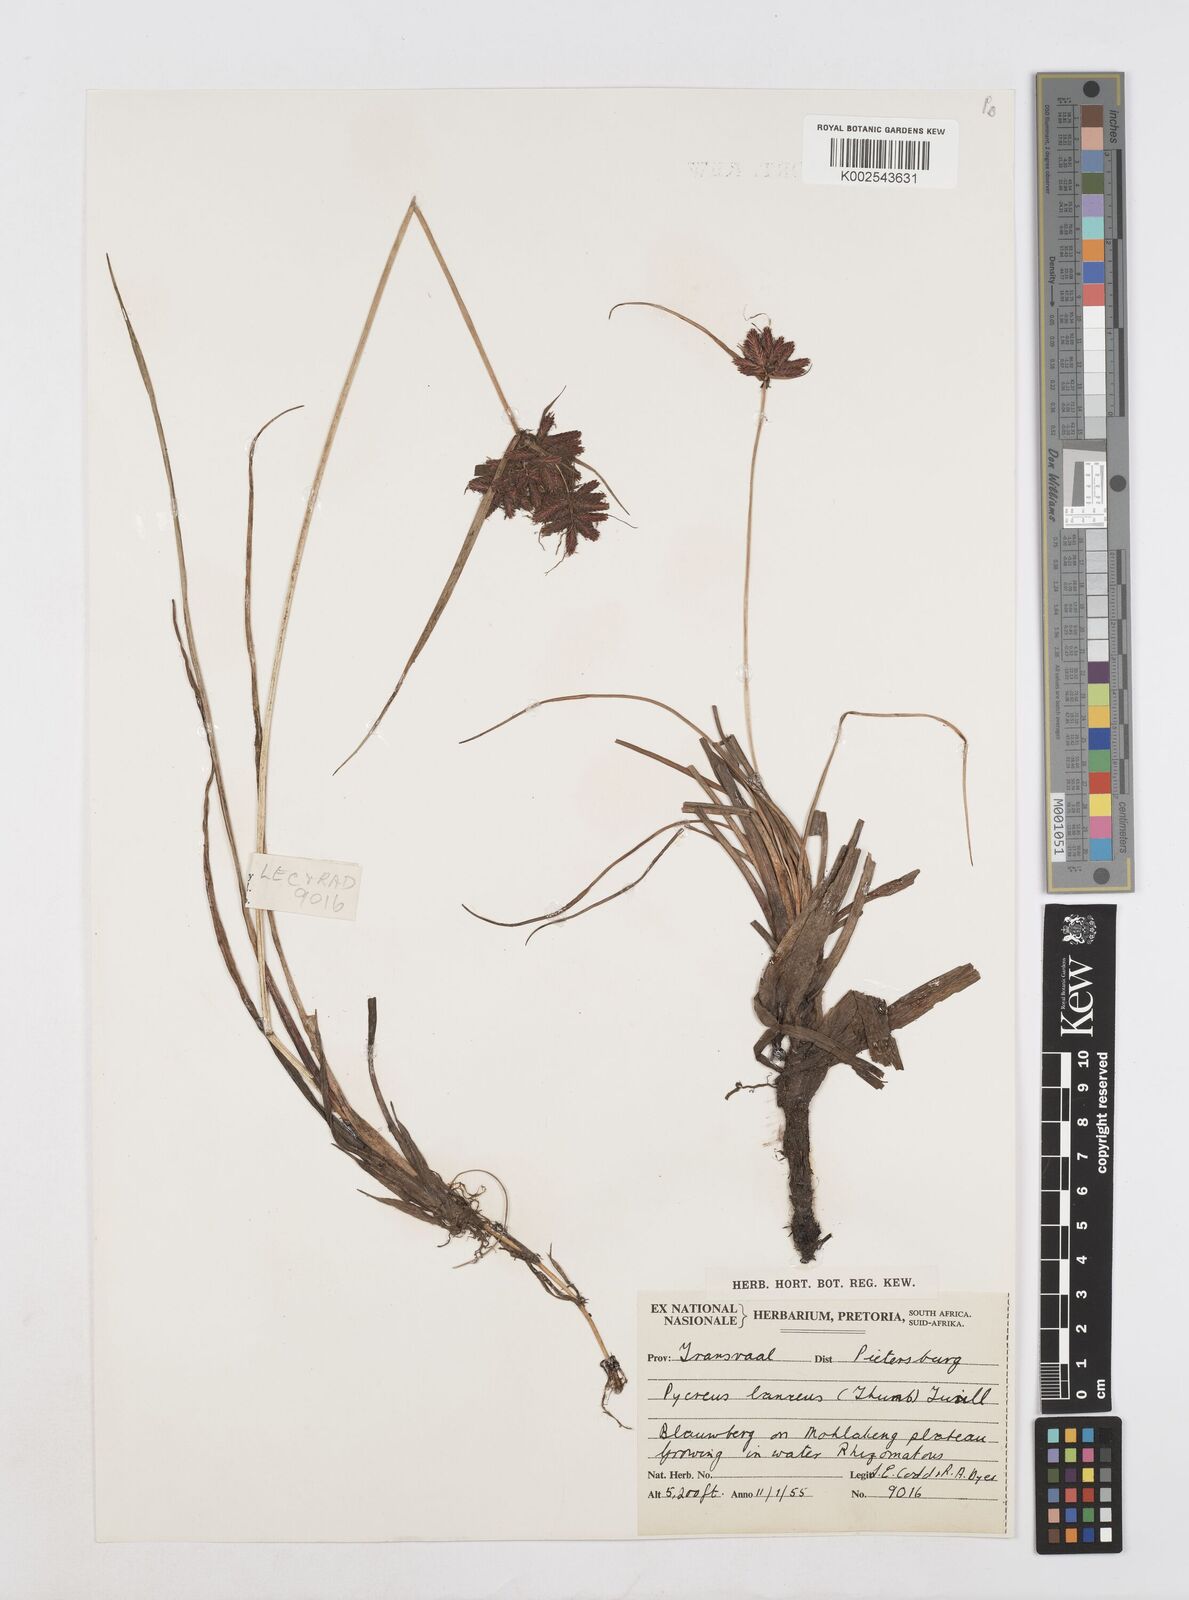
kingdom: Plantae
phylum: Tracheophyta
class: Liliopsida
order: Poales
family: Cyperaceae
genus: Cyperus
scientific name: Cyperus nitidus
